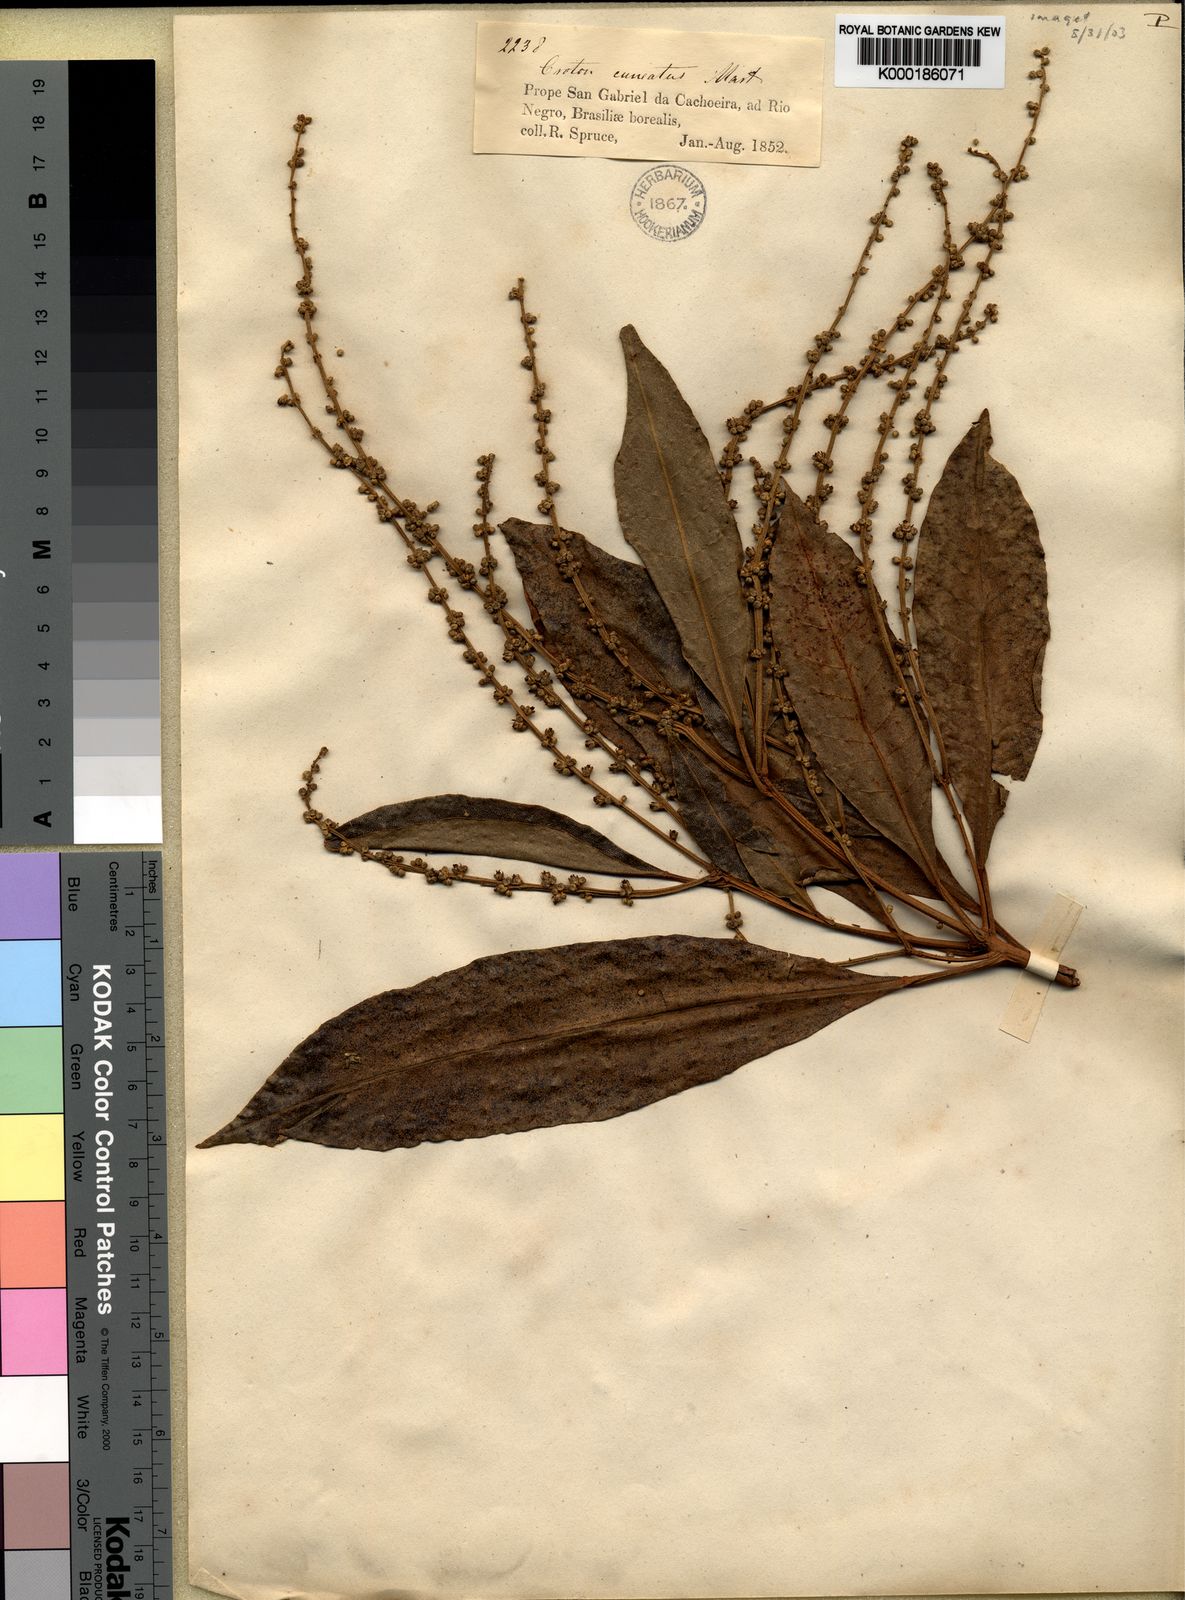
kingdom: Plantae
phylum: Tracheophyta
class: Magnoliopsida
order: Malpighiales
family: Euphorbiaceae
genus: Croton
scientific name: Croton
